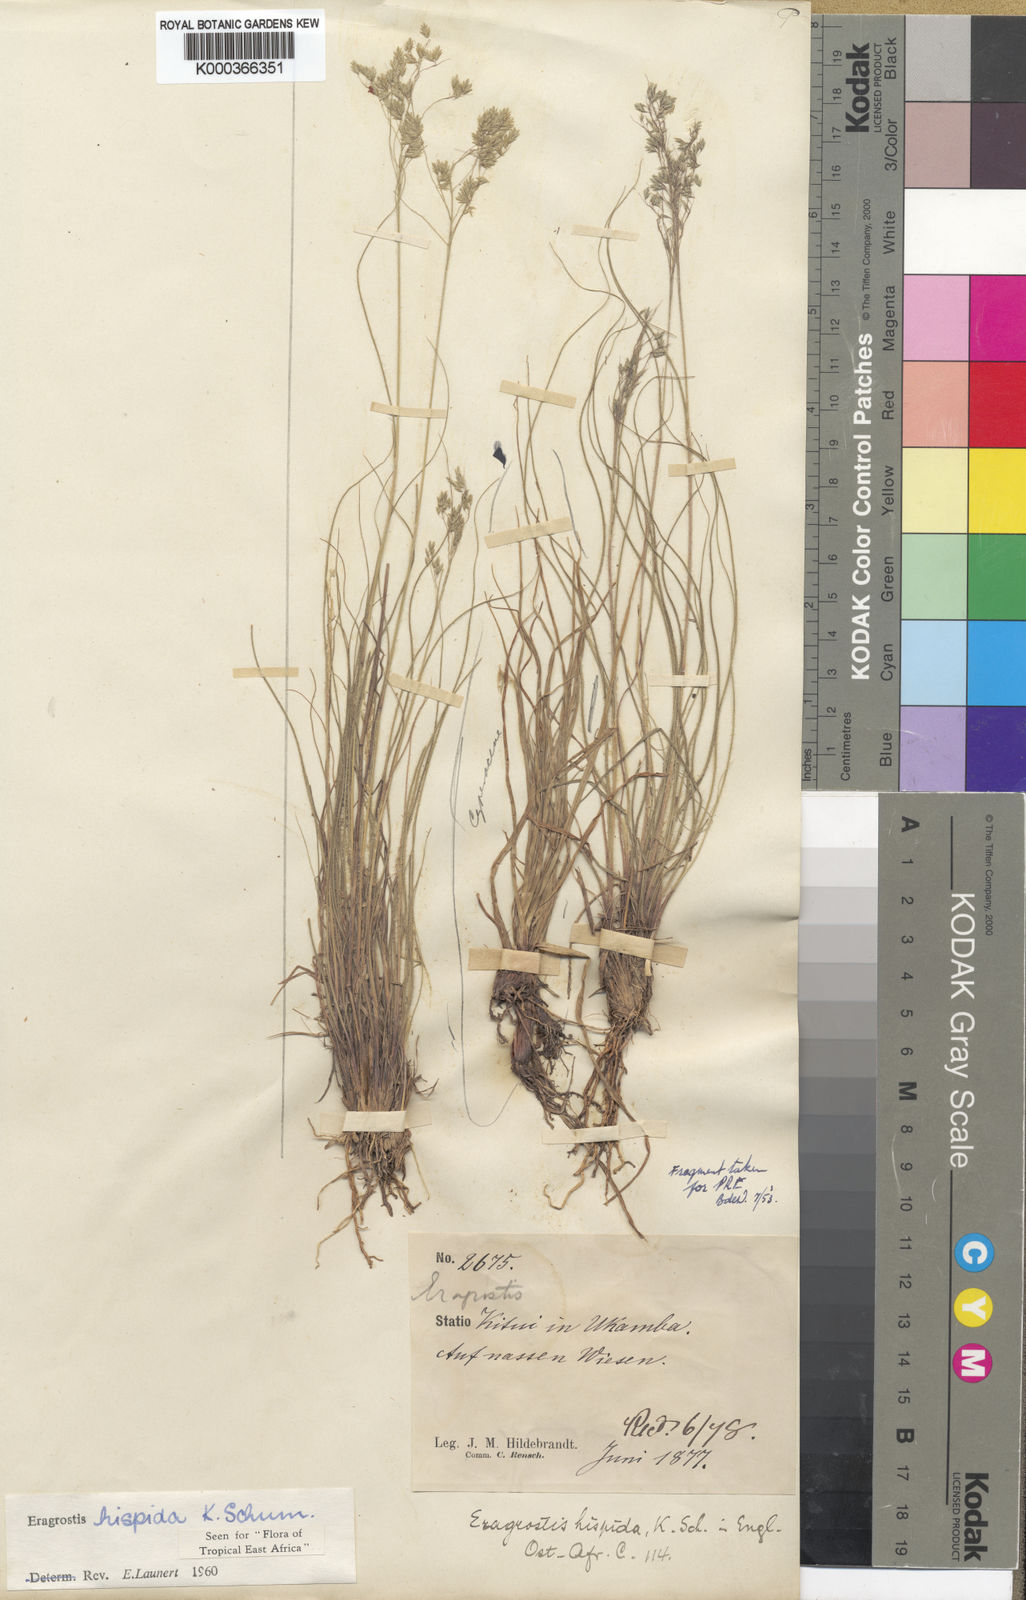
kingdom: Plantae
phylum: Tracheophyta
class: Liliopsida
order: Poales
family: Poaceae
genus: Eragrostis
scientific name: Eragrostis hispida
